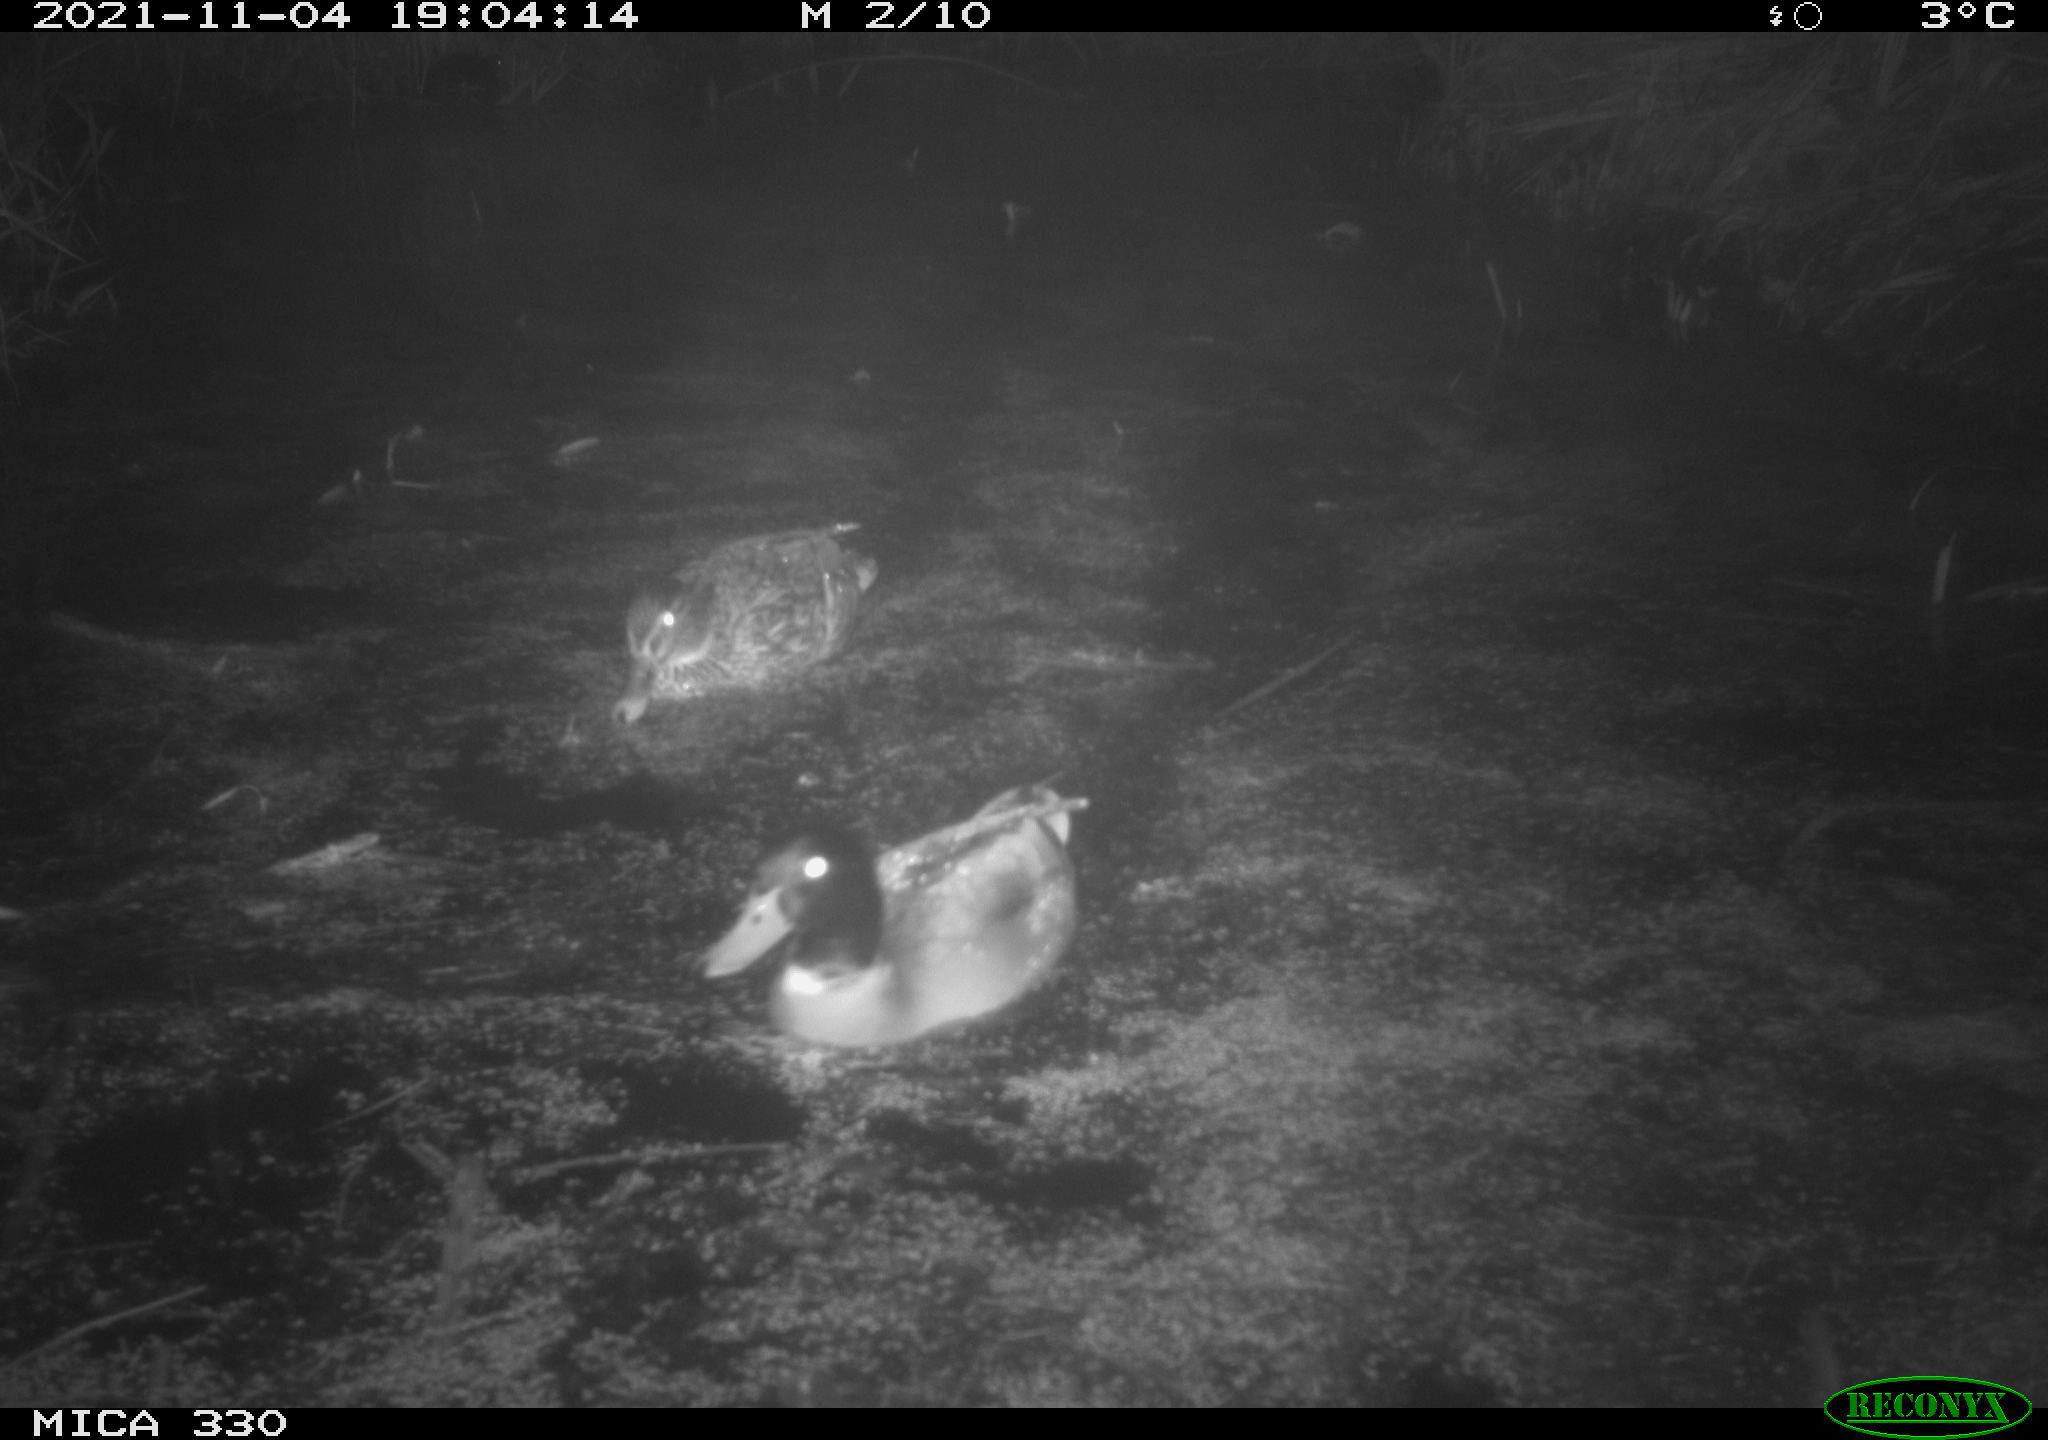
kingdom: Animalia
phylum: Chordata
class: Aves
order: Anseriformes
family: Anatidae
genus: Anas
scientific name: Anas platyrhynchos
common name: Mallard
